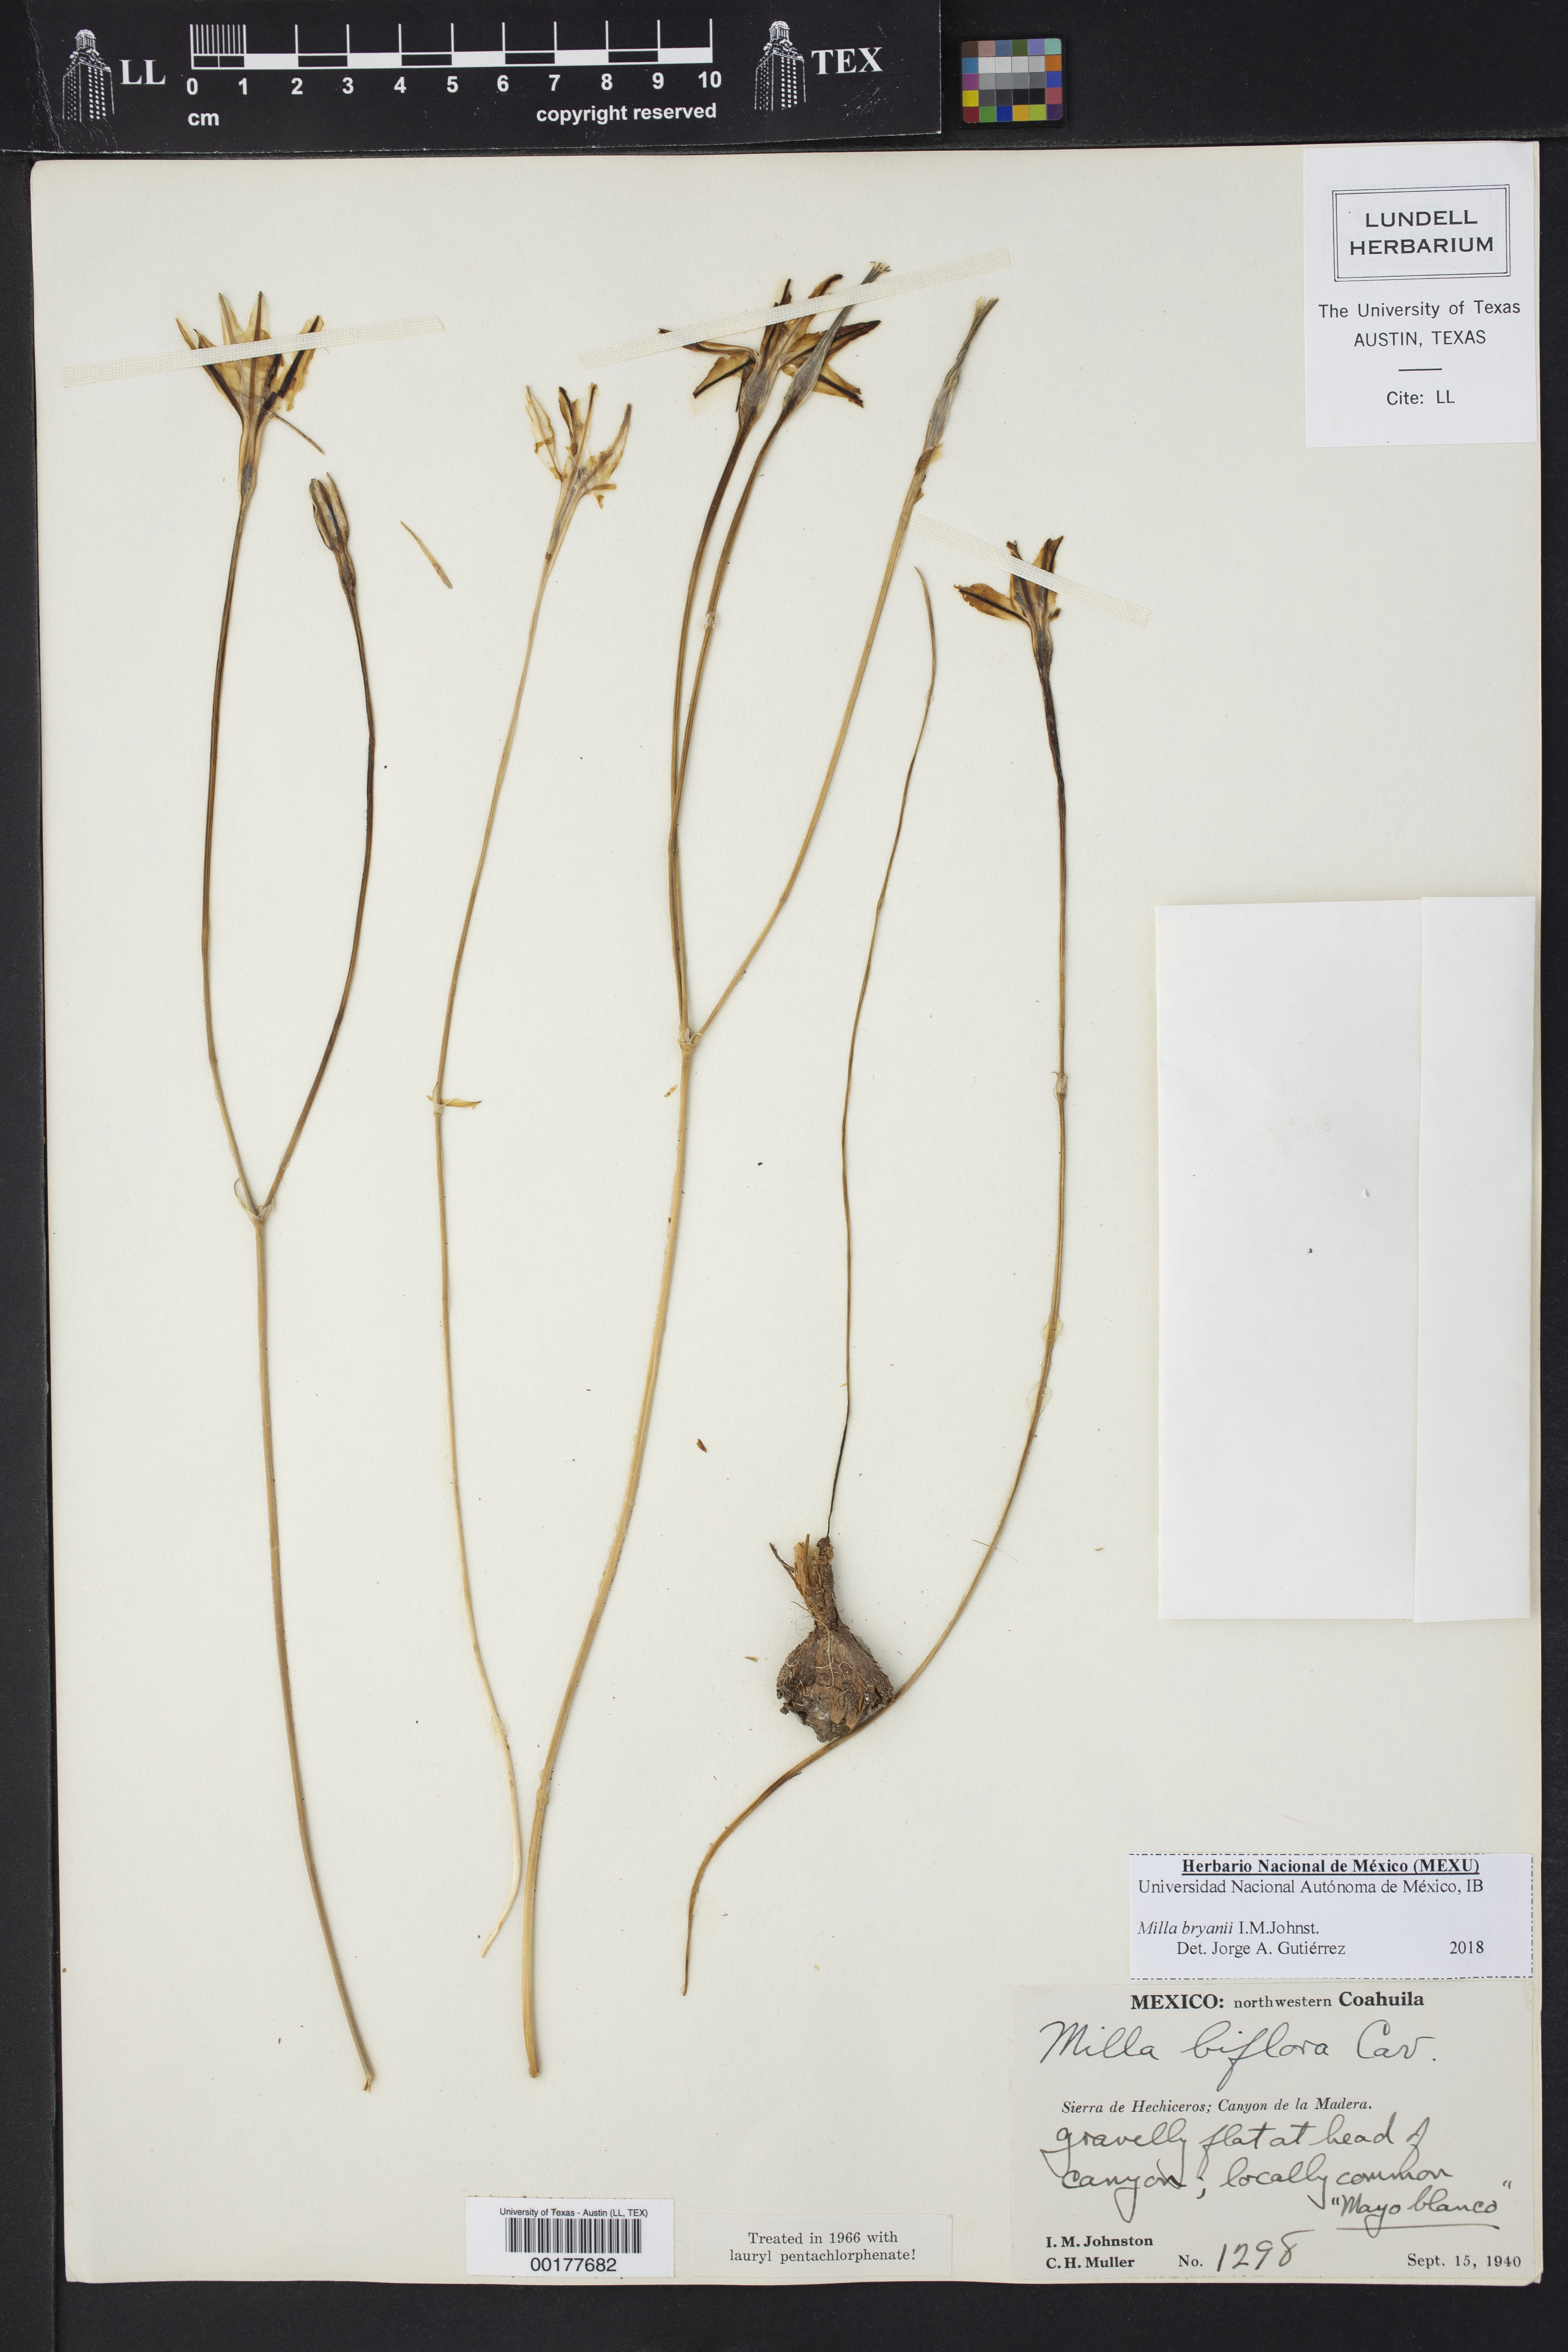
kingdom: Plantae
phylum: Tracheophyta
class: Liliopsida
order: Asparagales
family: Asparagaceae
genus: Milla
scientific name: Milla bryanii
